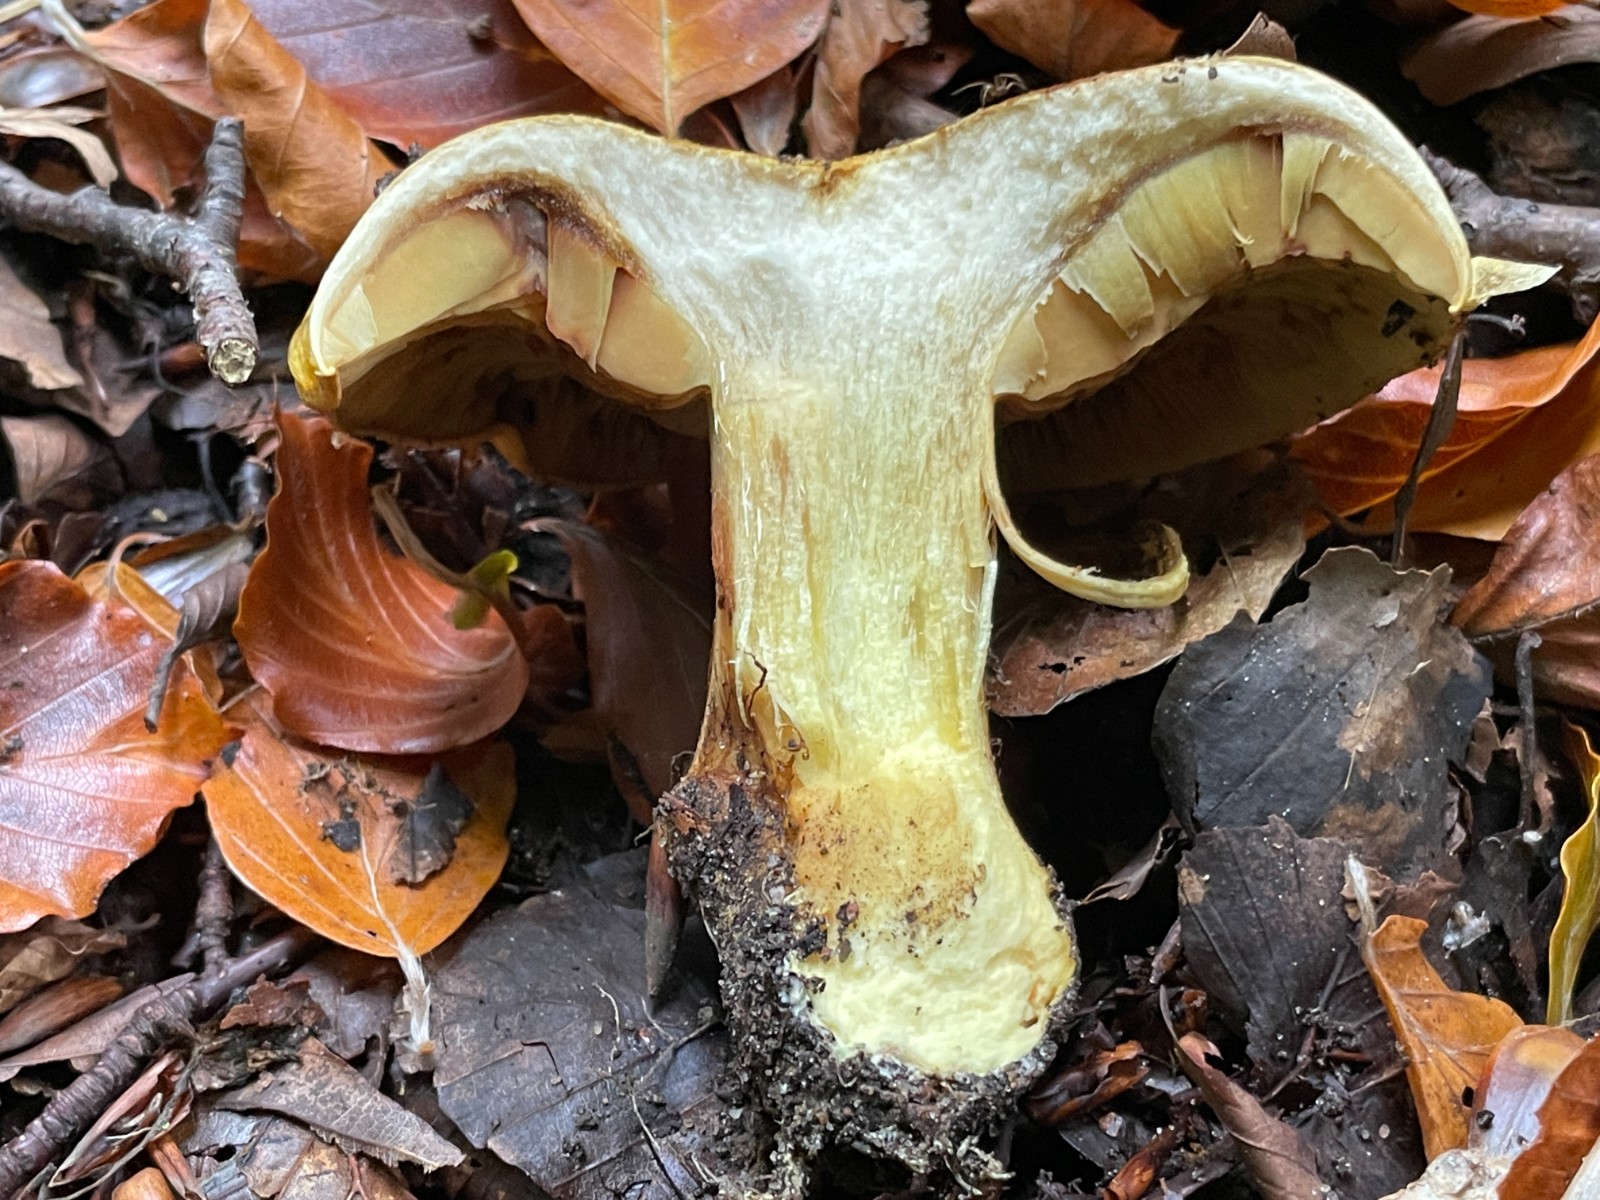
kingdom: Fungi
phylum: Basidiomycota
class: Agaricomycetes
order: Agaricales
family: Cortinariaceae
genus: Calonarius
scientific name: Calonarius alcalinophilus
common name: gyldenbrun slørhat
